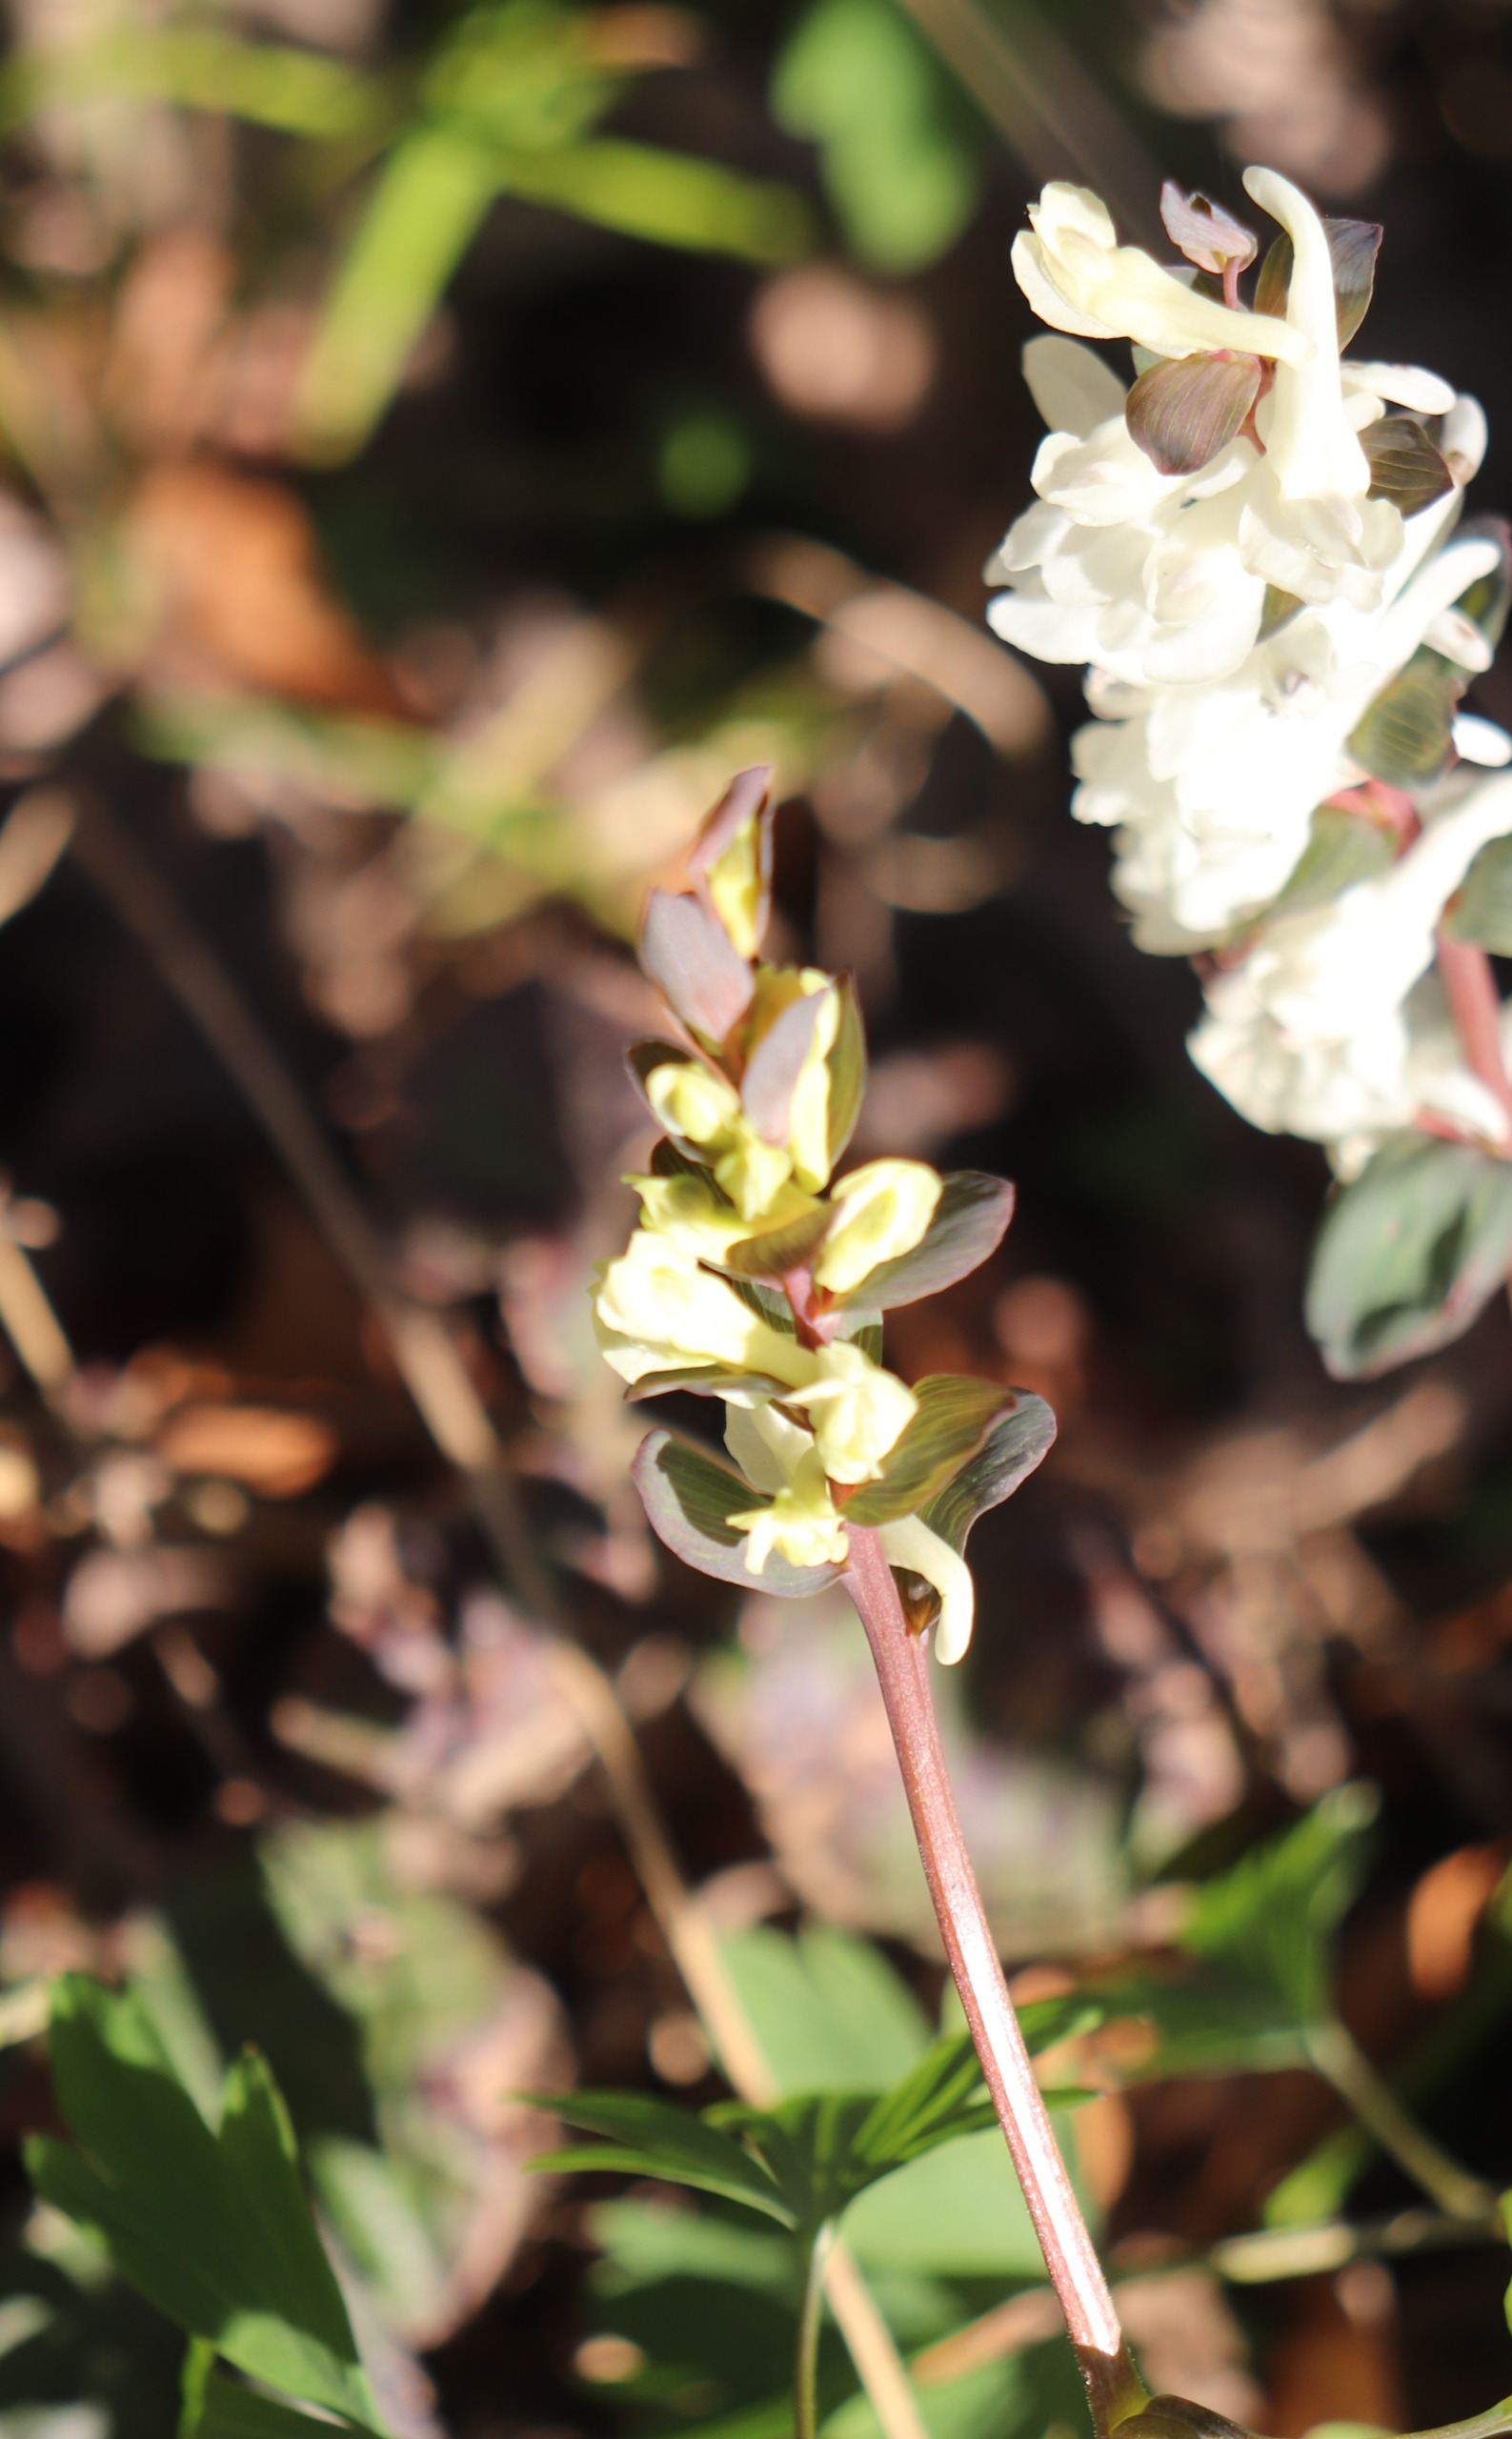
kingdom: Plantae
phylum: Tracheophyta
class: Magnoliopsida
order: Ranunculales
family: Papaveraceae
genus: Corydalis
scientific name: Corydalis cava
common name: Hulrodet lærkespore
